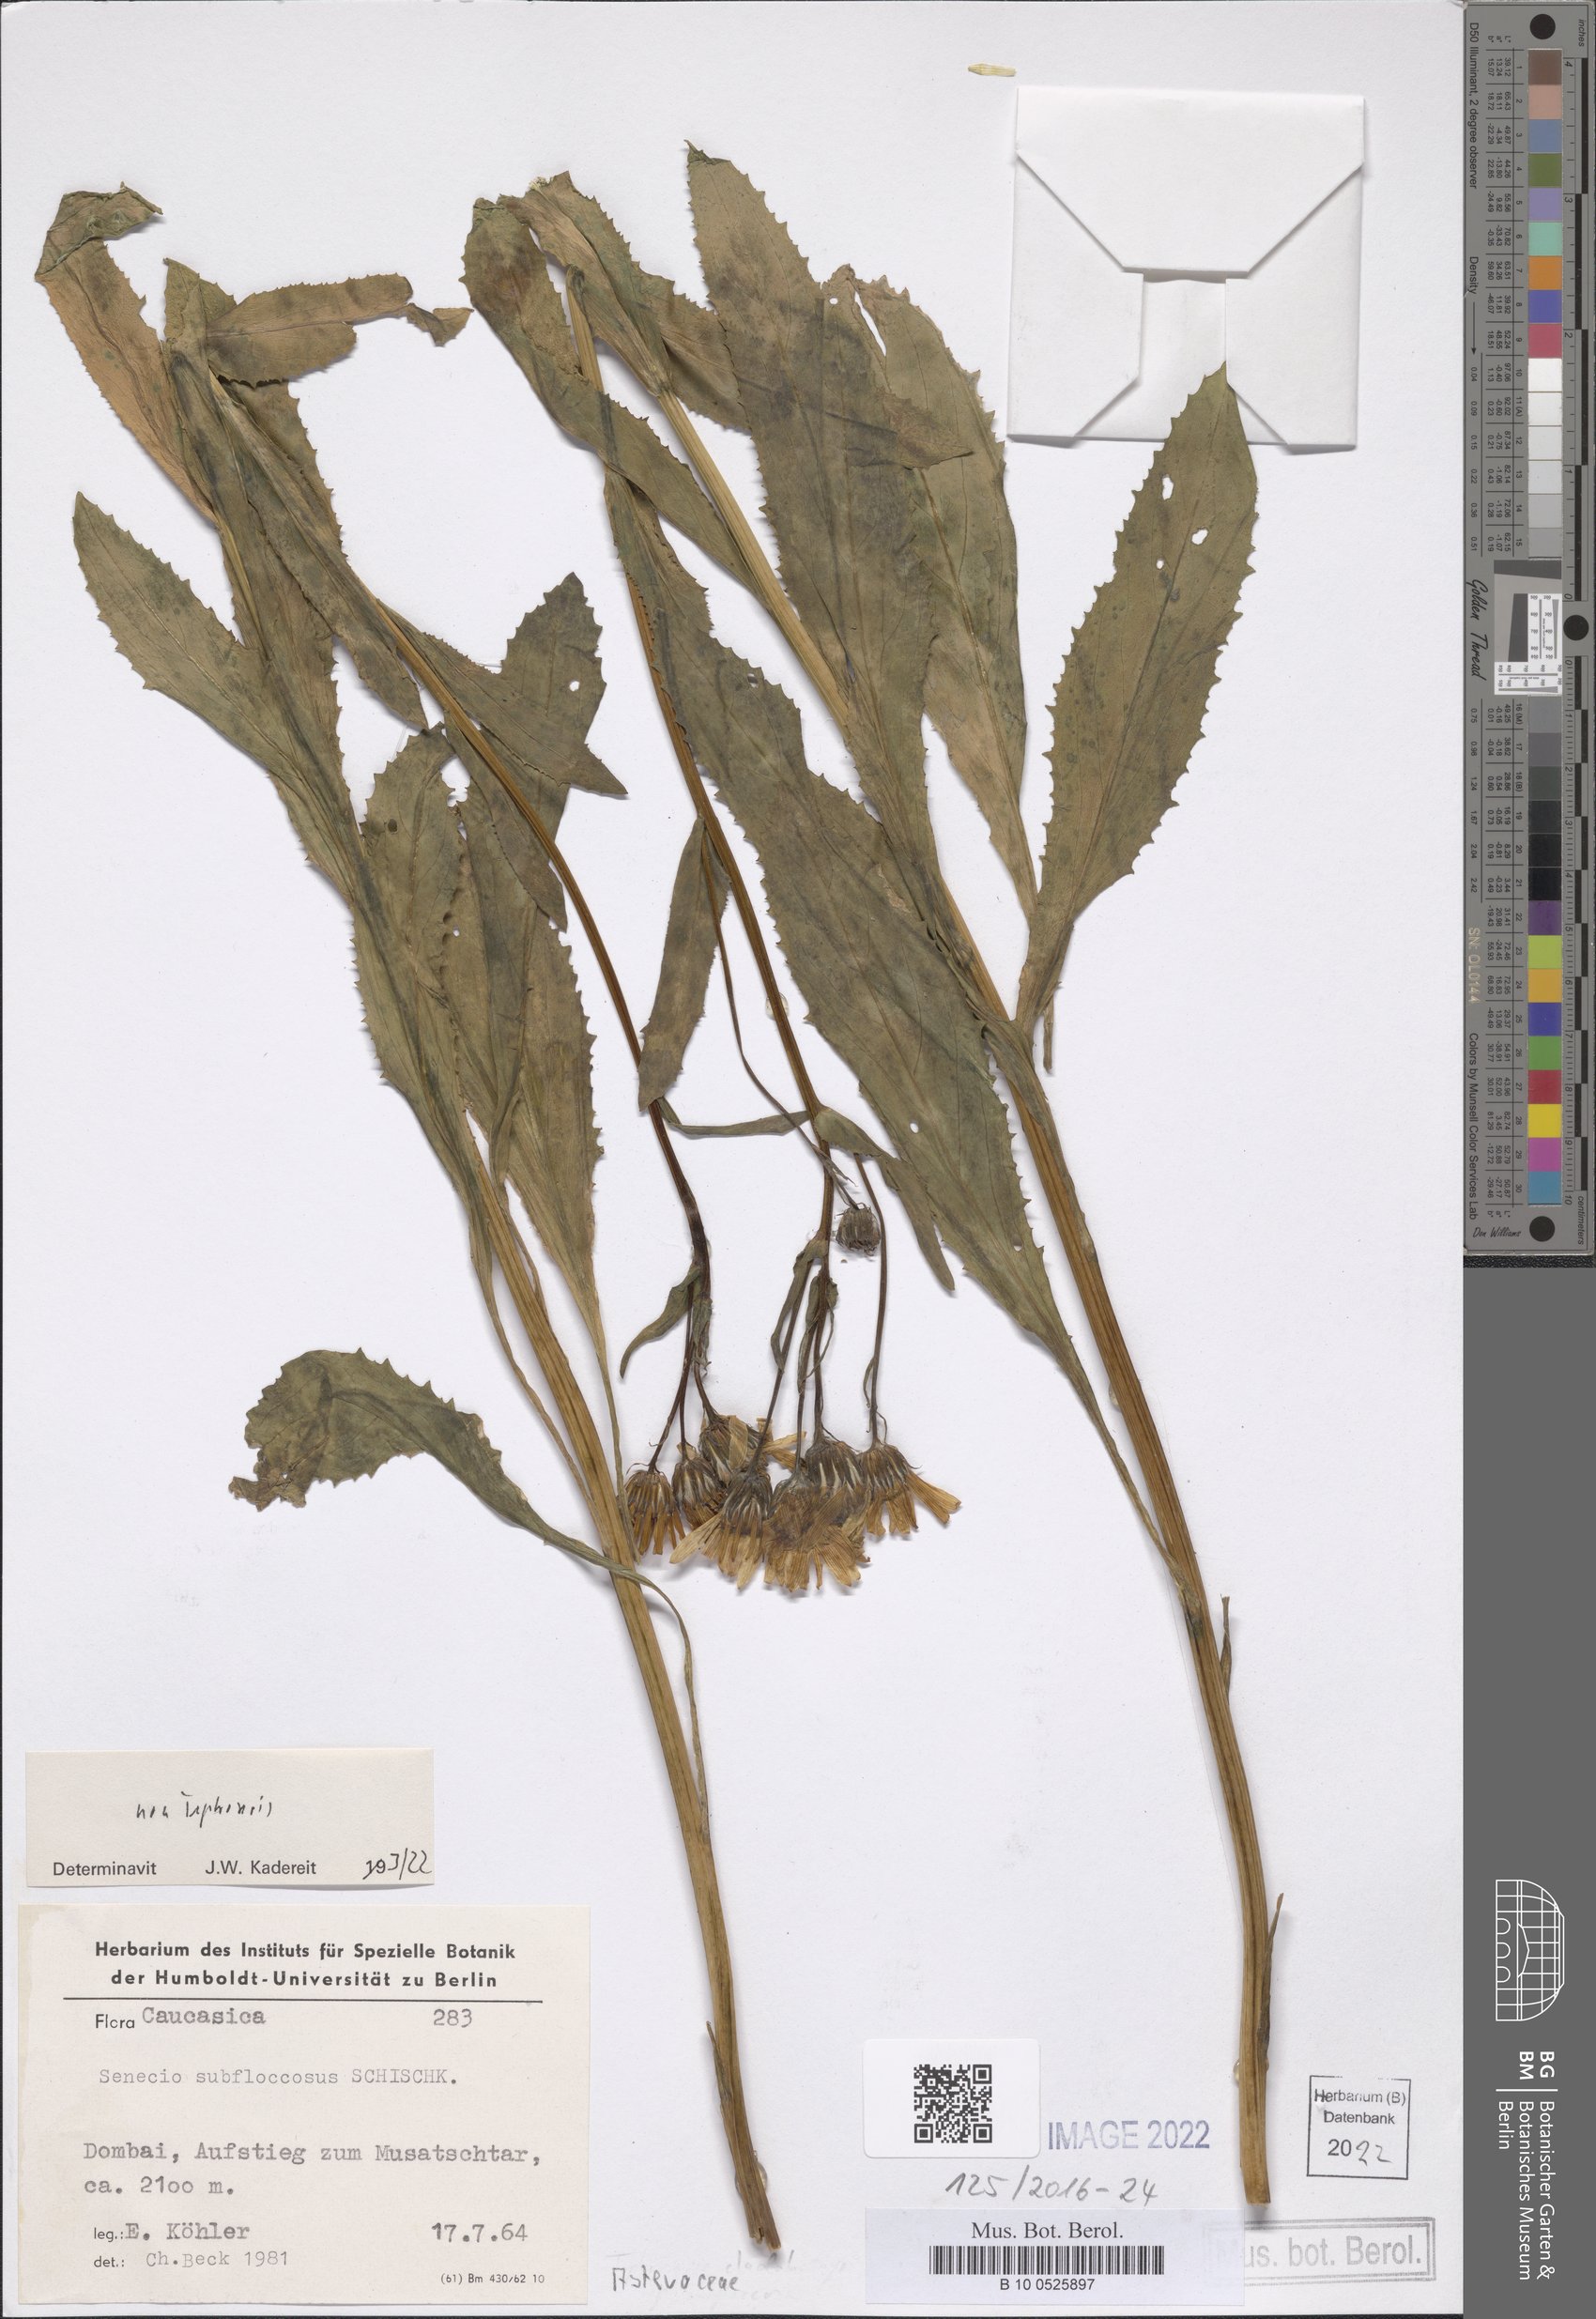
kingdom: Plantae
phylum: Tracheophyta
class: Magnoliopsida
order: Asterales
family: Asteraceae
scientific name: Asteraceae
